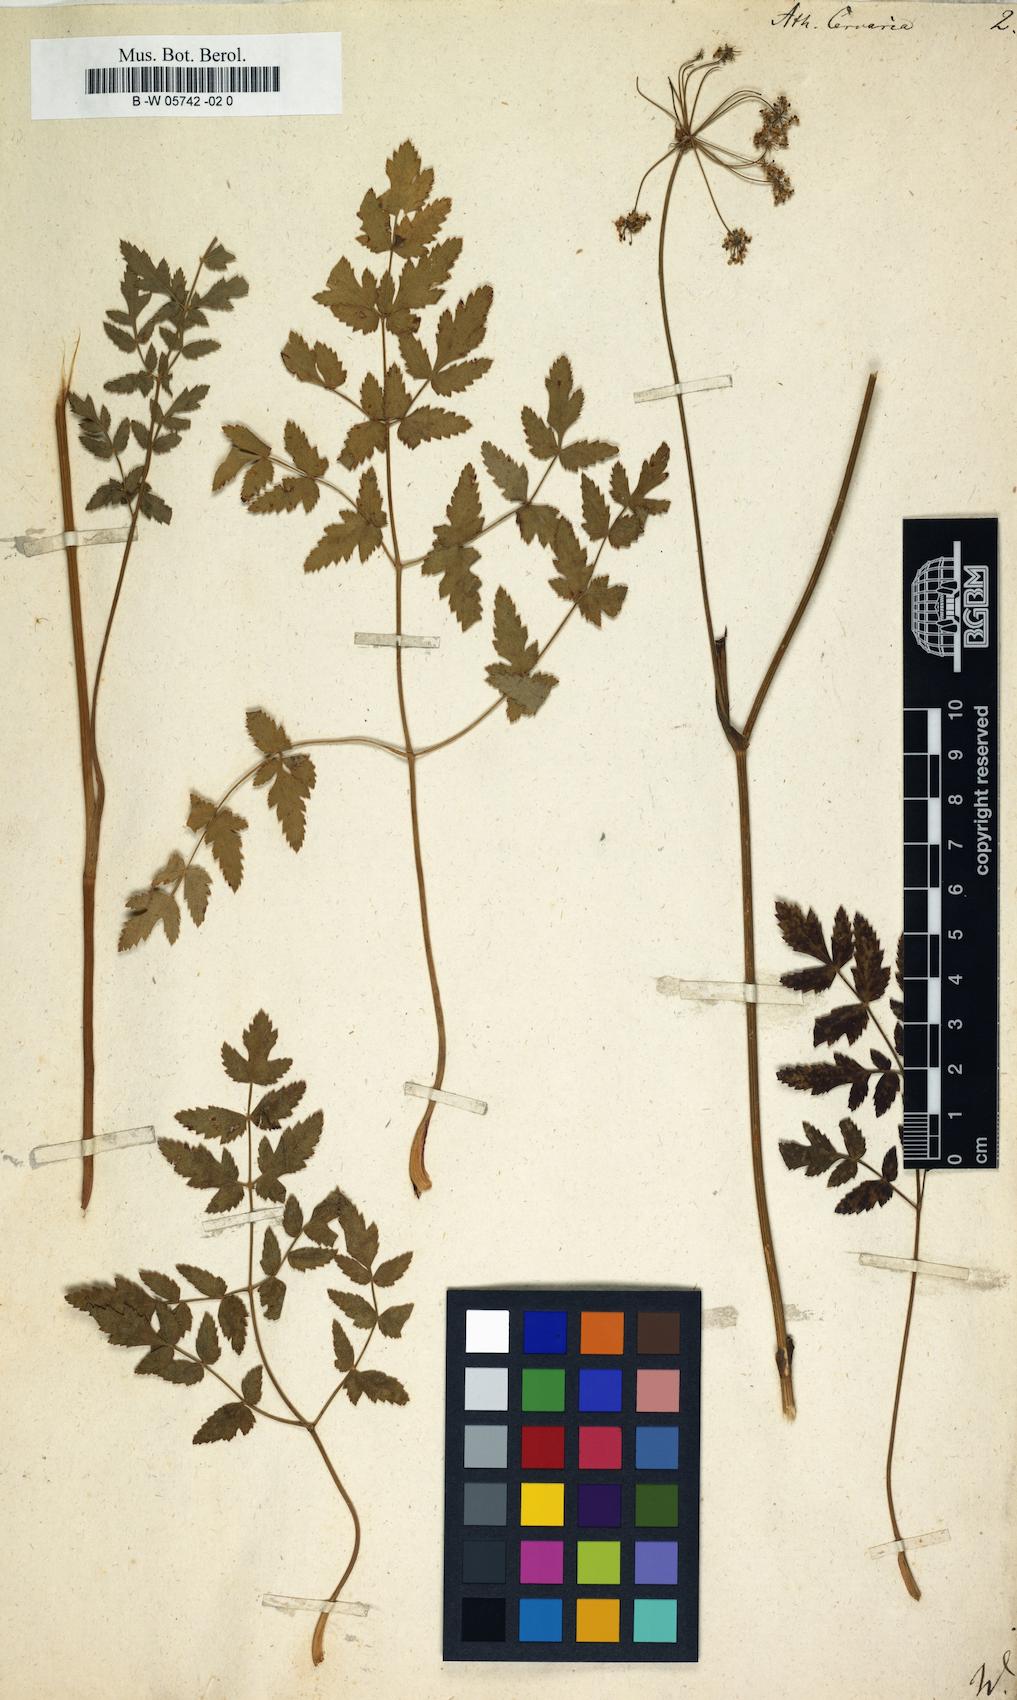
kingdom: Plantae
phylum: Tracheophyta
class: Magnoliopsida
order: Apiales
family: Apiaceae
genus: Cervaria
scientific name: Cervaria rivini
